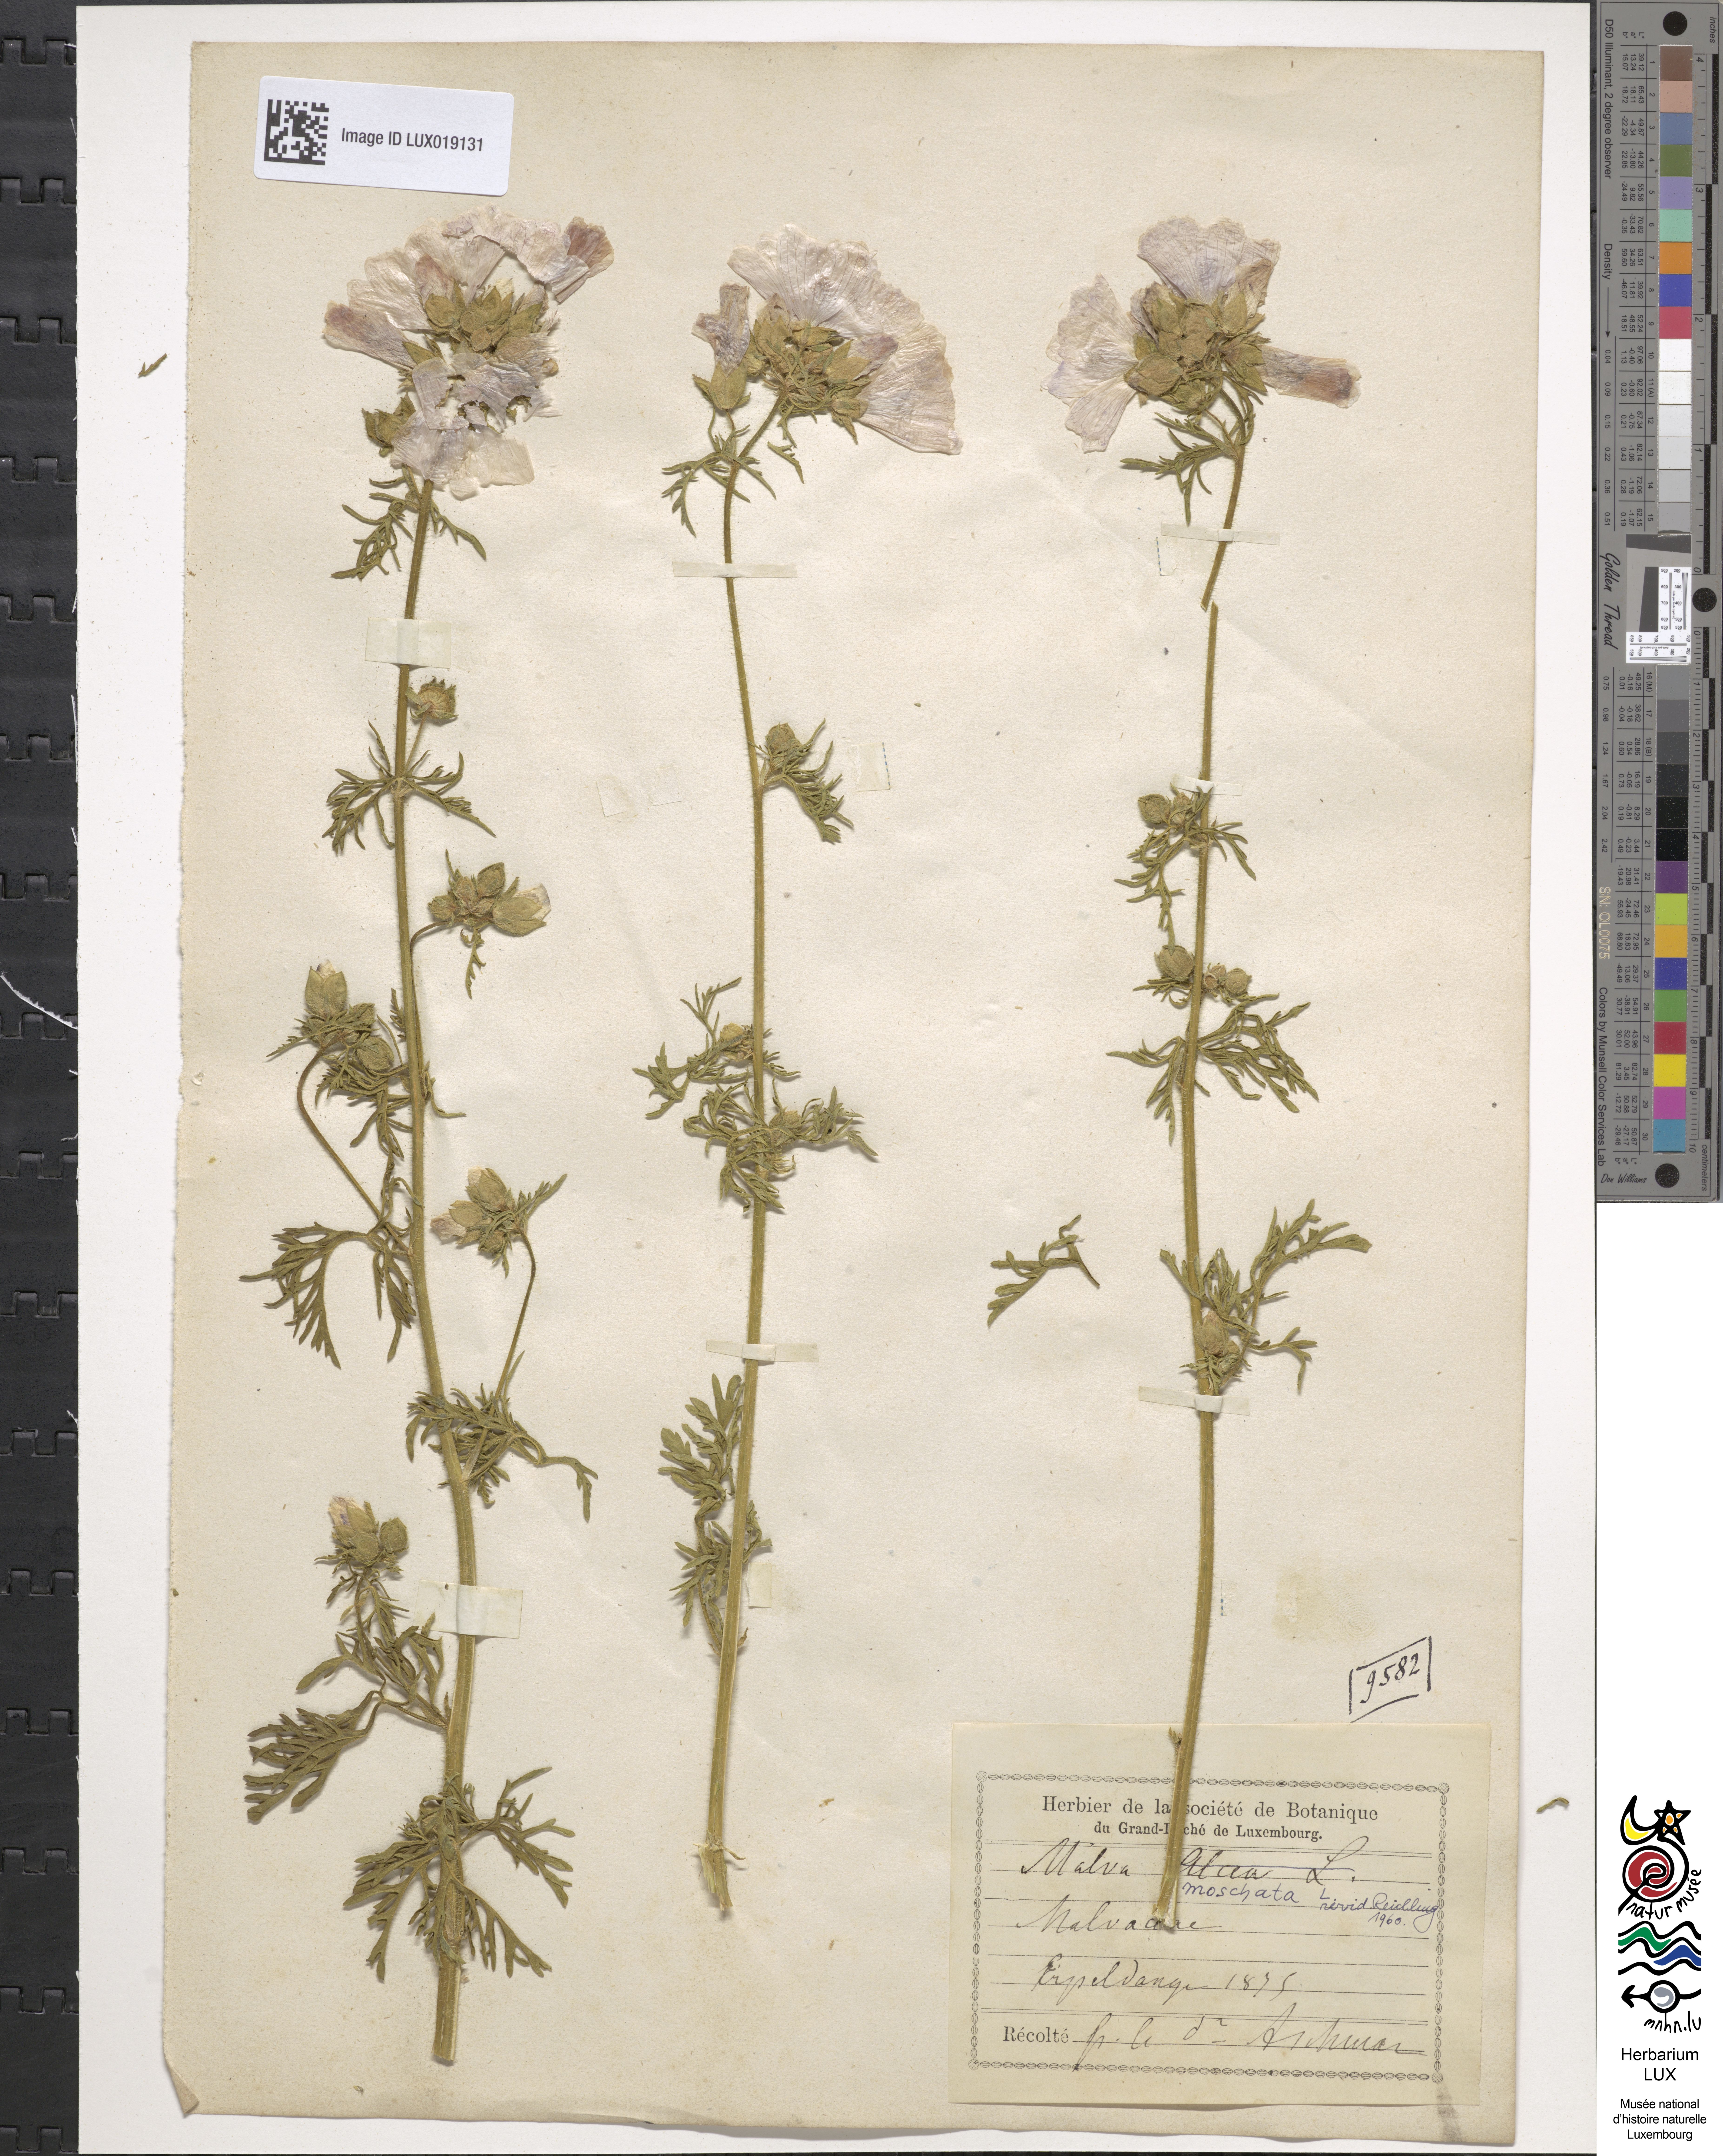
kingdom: Plantae
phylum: Tracheophyta
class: Magnoliopsida
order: Malvales
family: Malvaceae
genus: Malva
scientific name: Malva alcea
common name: Greater musk-mallow
